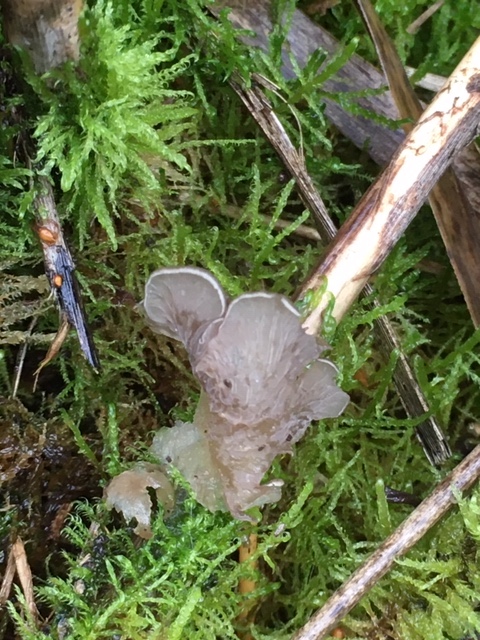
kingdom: Fungi
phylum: Basidiomycota
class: Agaricomycetes
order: Agaricales
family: Hygrophoraceae
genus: Arrhenia
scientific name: Arrhenia lobata
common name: siddende fontænehat
